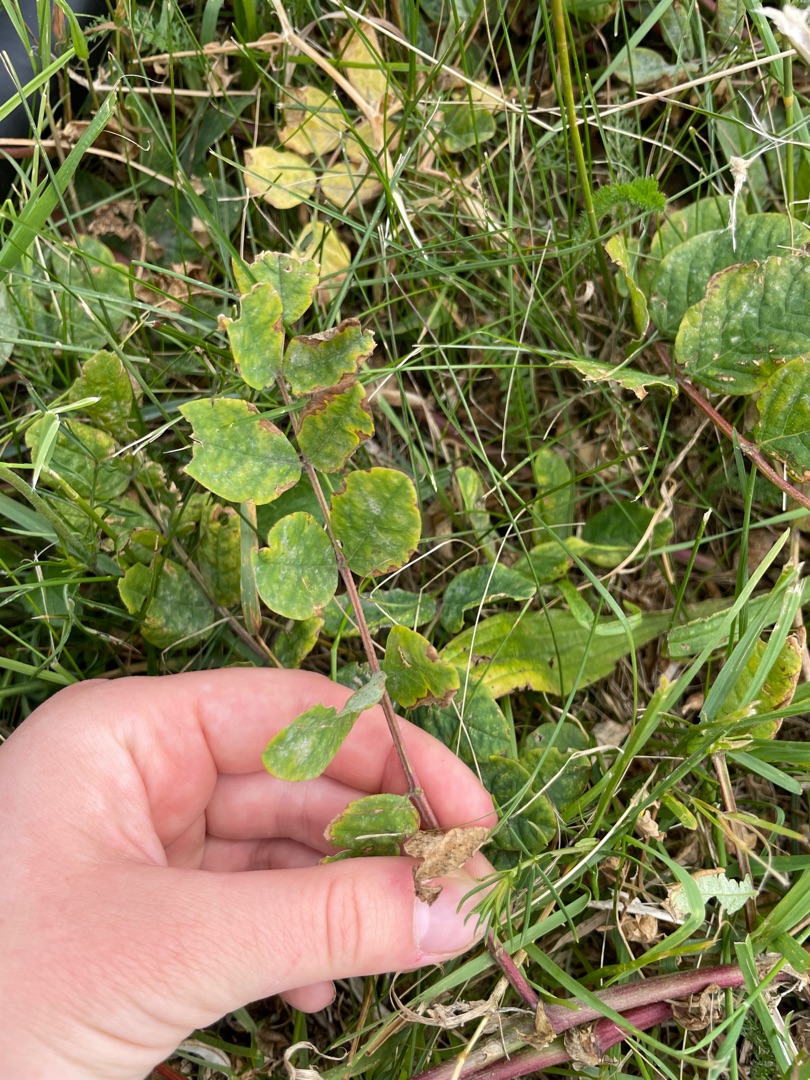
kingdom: Plantae
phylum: Tracheophyta
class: Magnoliopsida
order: Fabales
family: Fabaceae
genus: Astragalus
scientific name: Astragalus glycyphyllos
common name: Sød astragel
